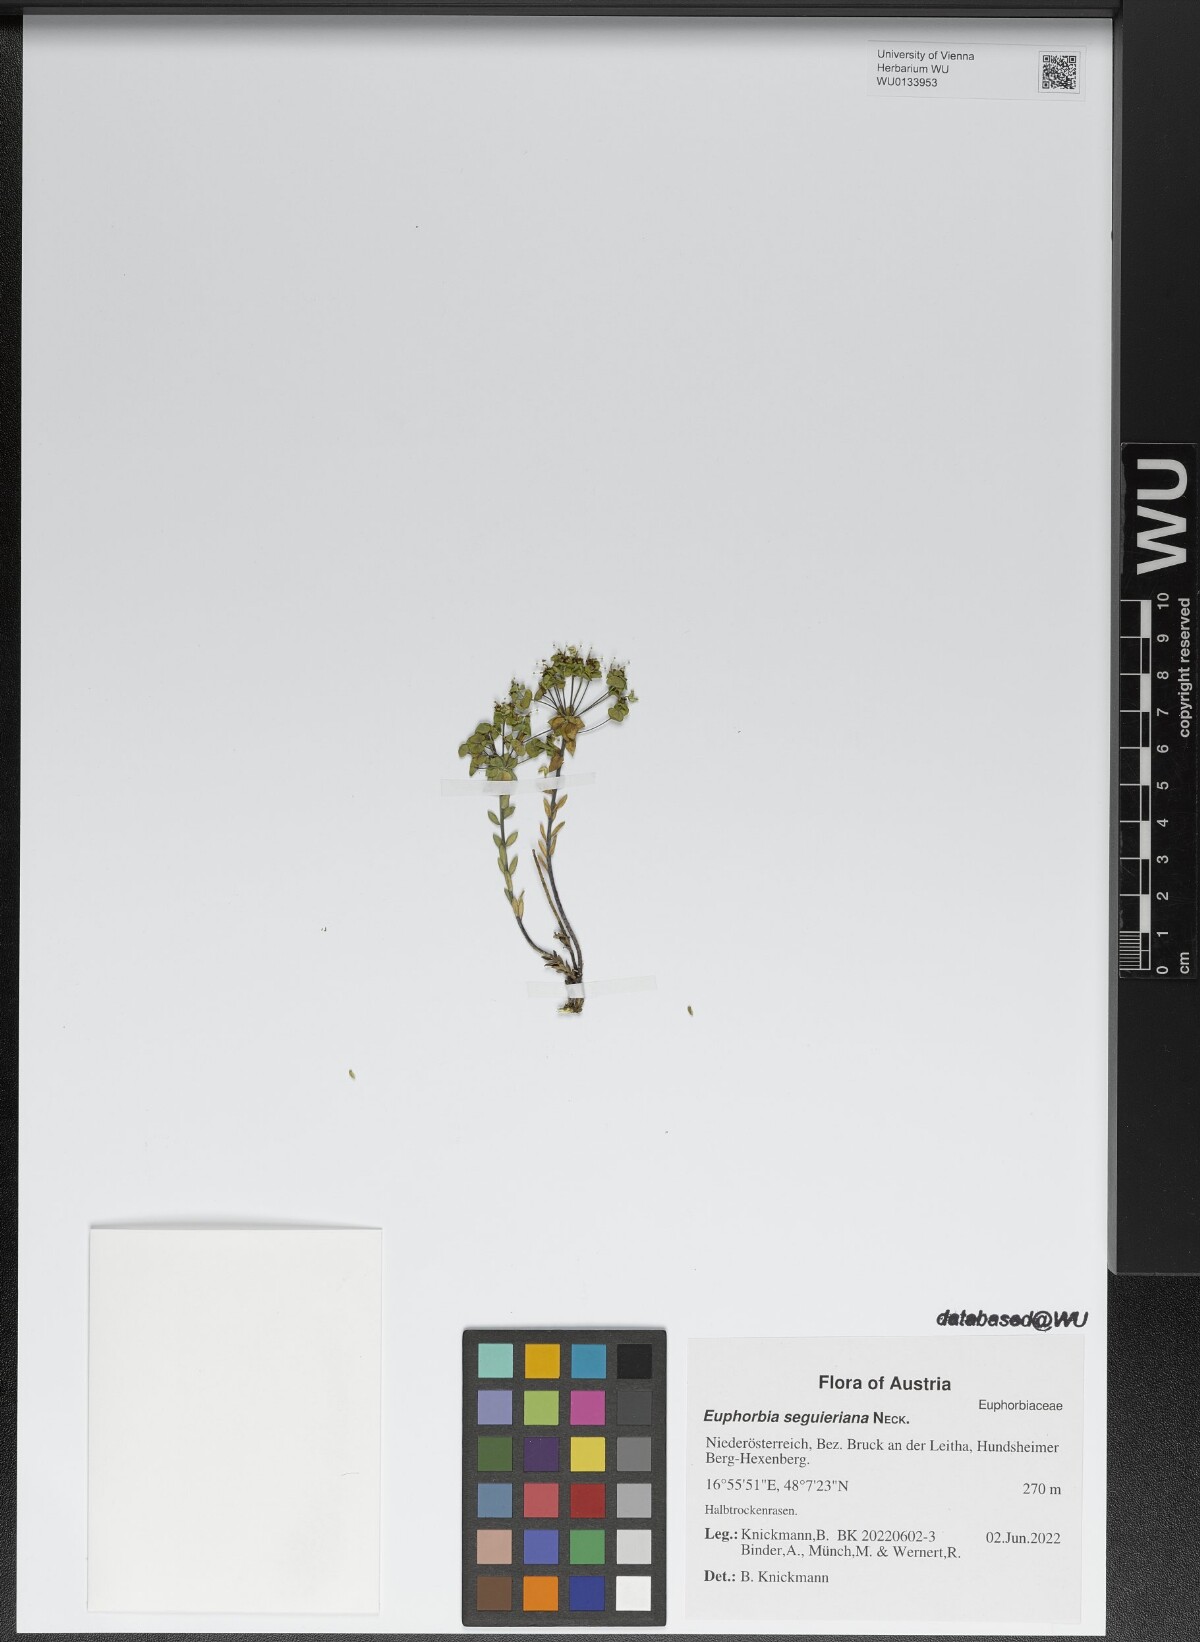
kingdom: Plantae
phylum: Tracheophyta
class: Magnoliopsida
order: Malpighiales
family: Euphorbiaceae
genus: Euphorbia
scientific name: Euphorbia seguieriana
